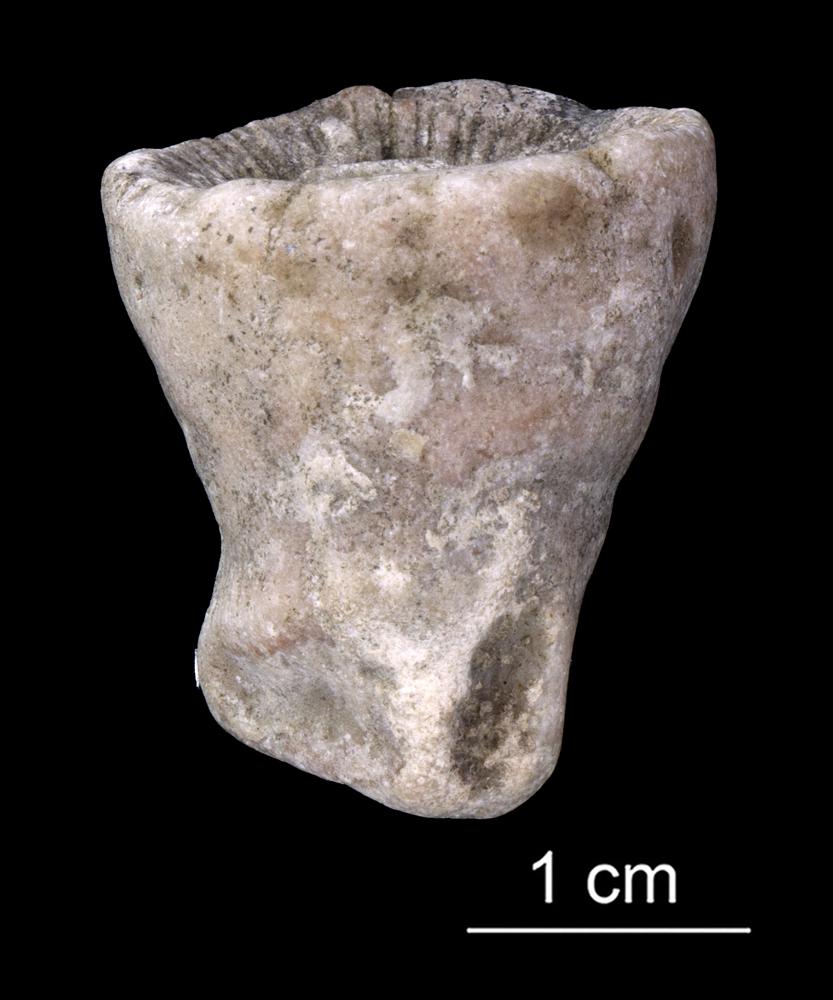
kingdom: Animalia
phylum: Cnidaria
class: Anthozoa
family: Kodonophyllidae
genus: Kodonophyllum
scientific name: Kodonophyllum
